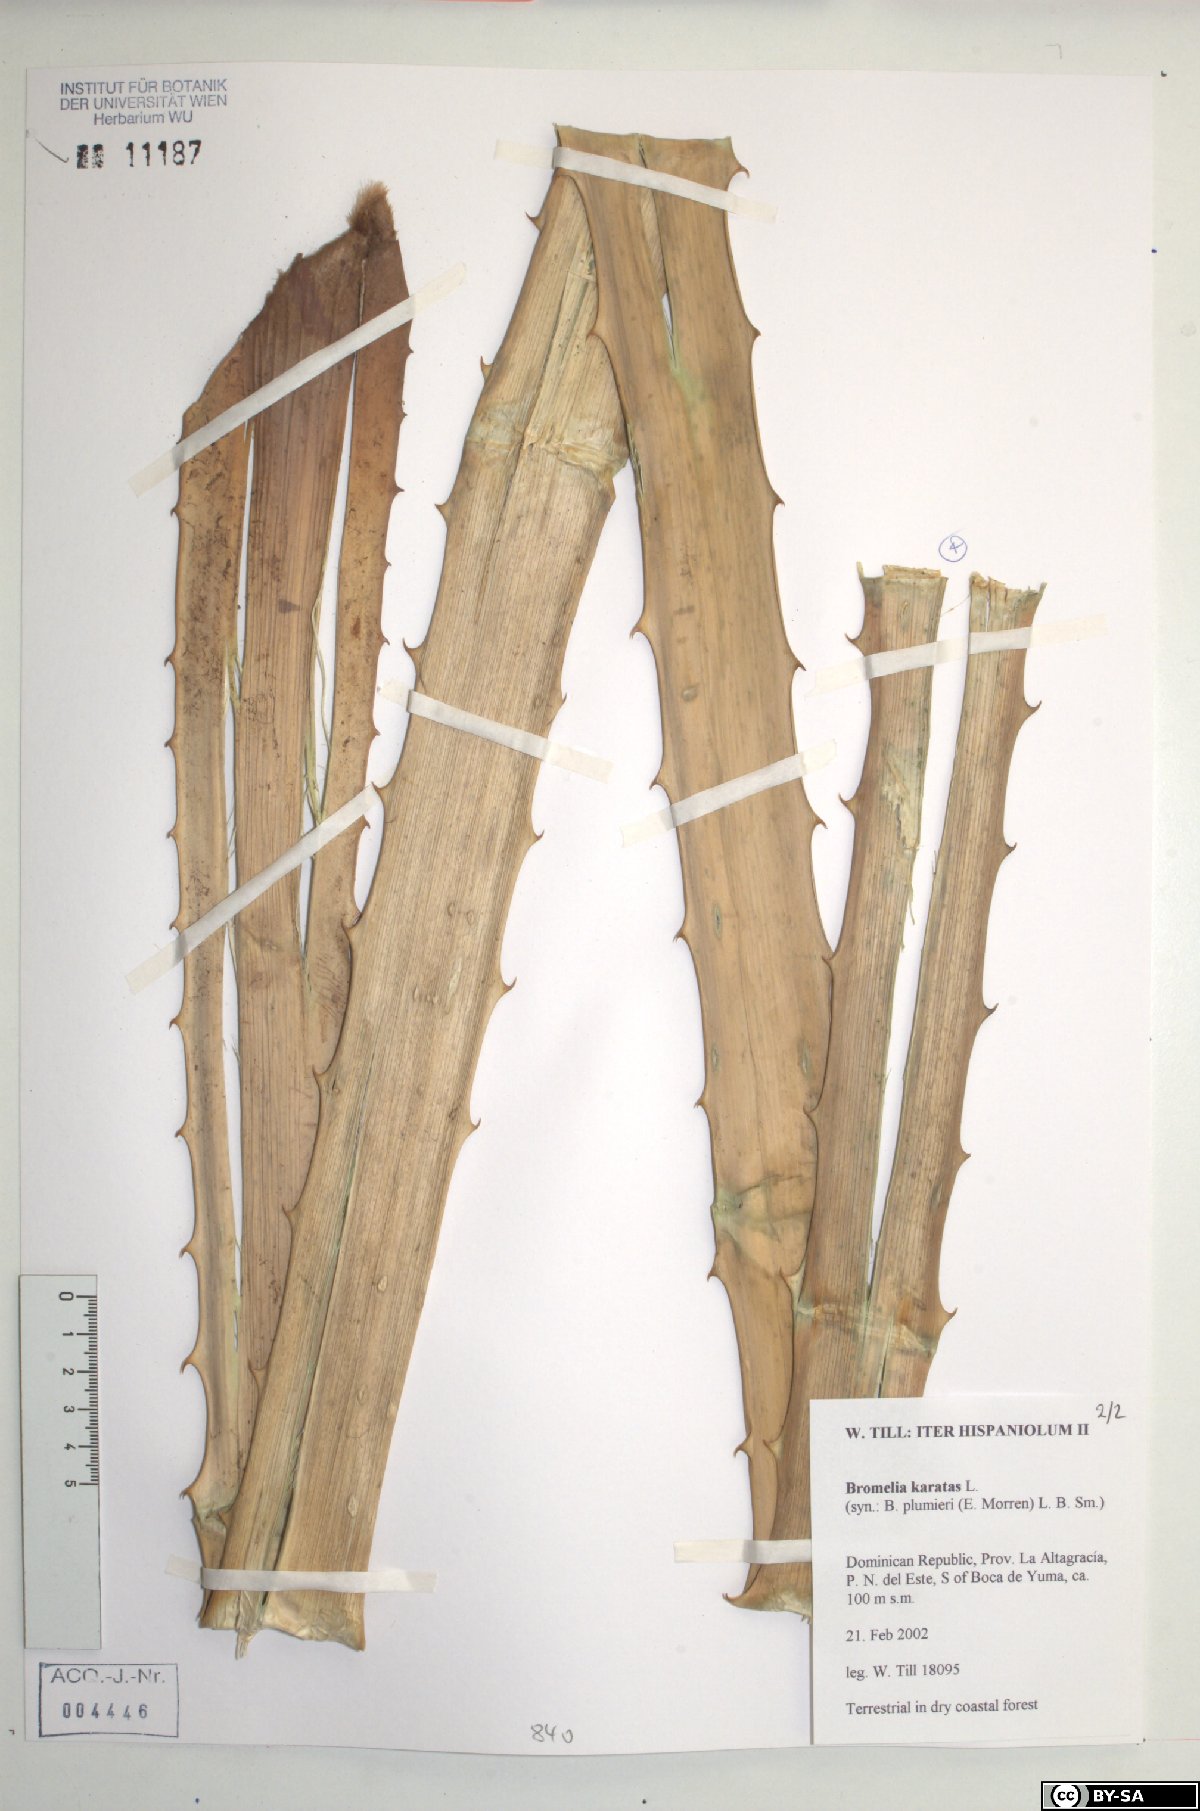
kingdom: Plantae
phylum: Tracheophyta
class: Liliopsida
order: Poales
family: Bromeliaceae
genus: Bromelia
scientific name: Bromelia karatas
